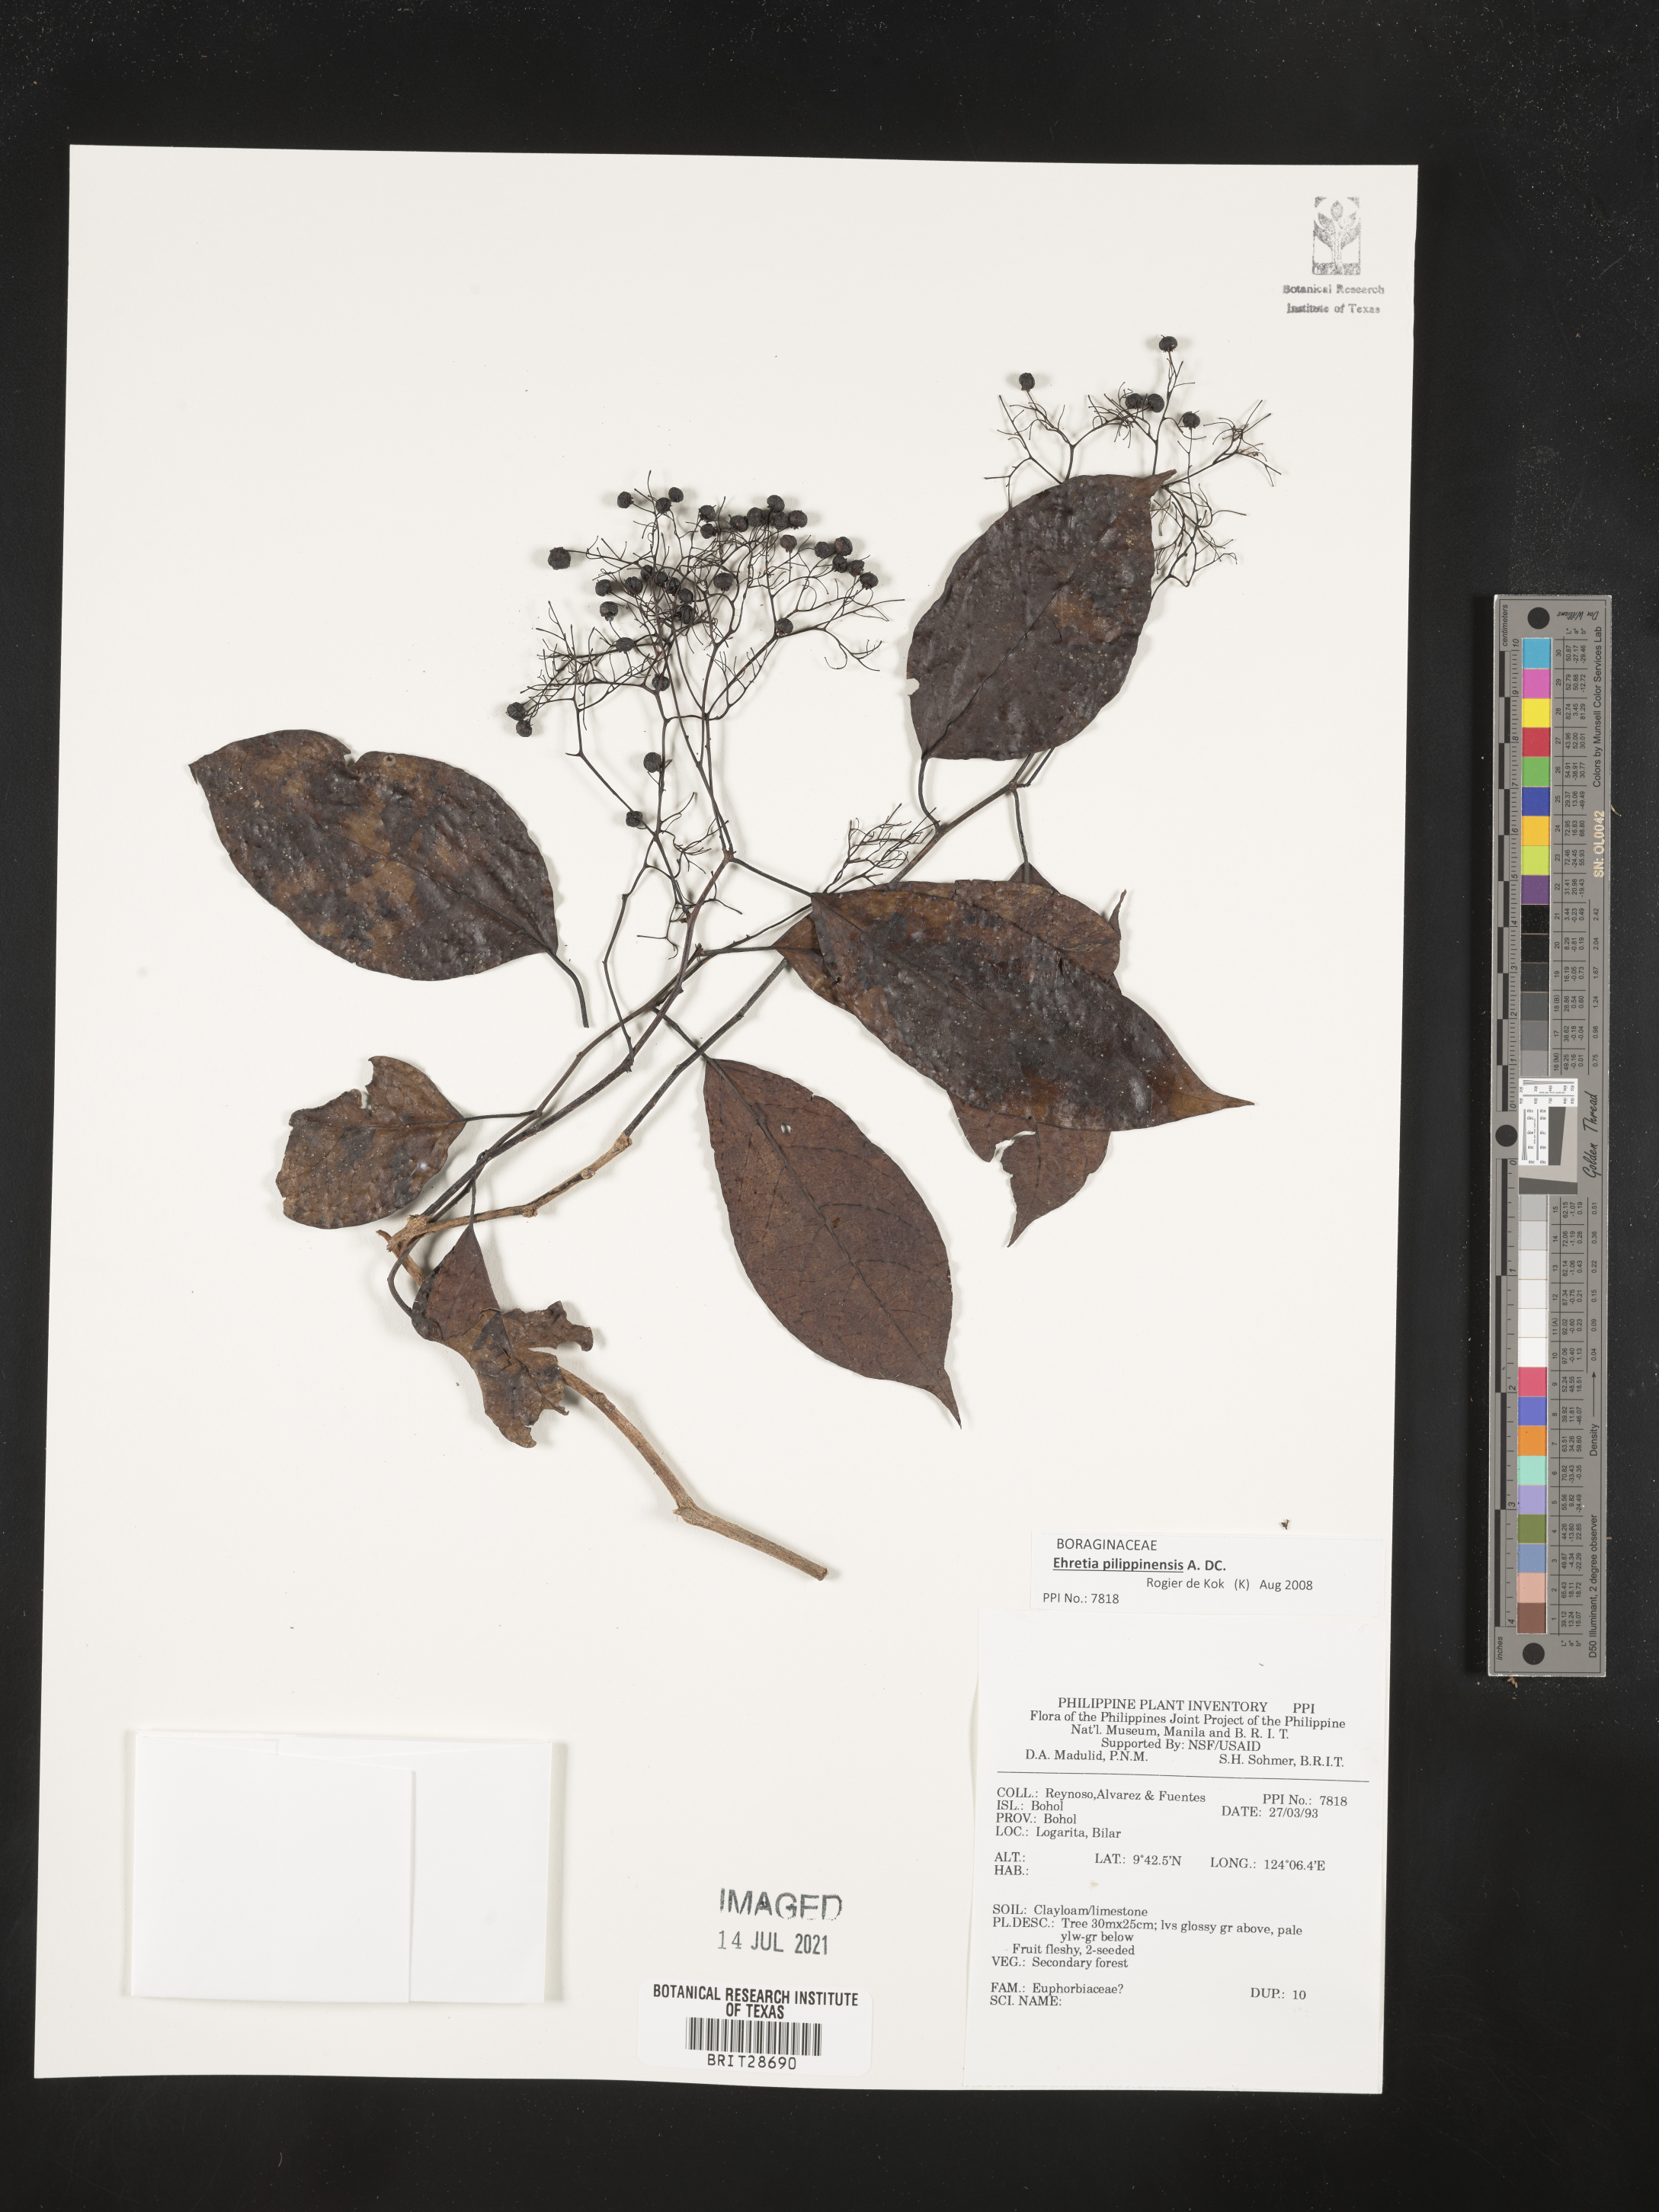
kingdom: Plantae
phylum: Tracheophyta
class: Magnoliopsida
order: Malpighiales
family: Euphorbiaceae
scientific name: Euphorbiaceae
